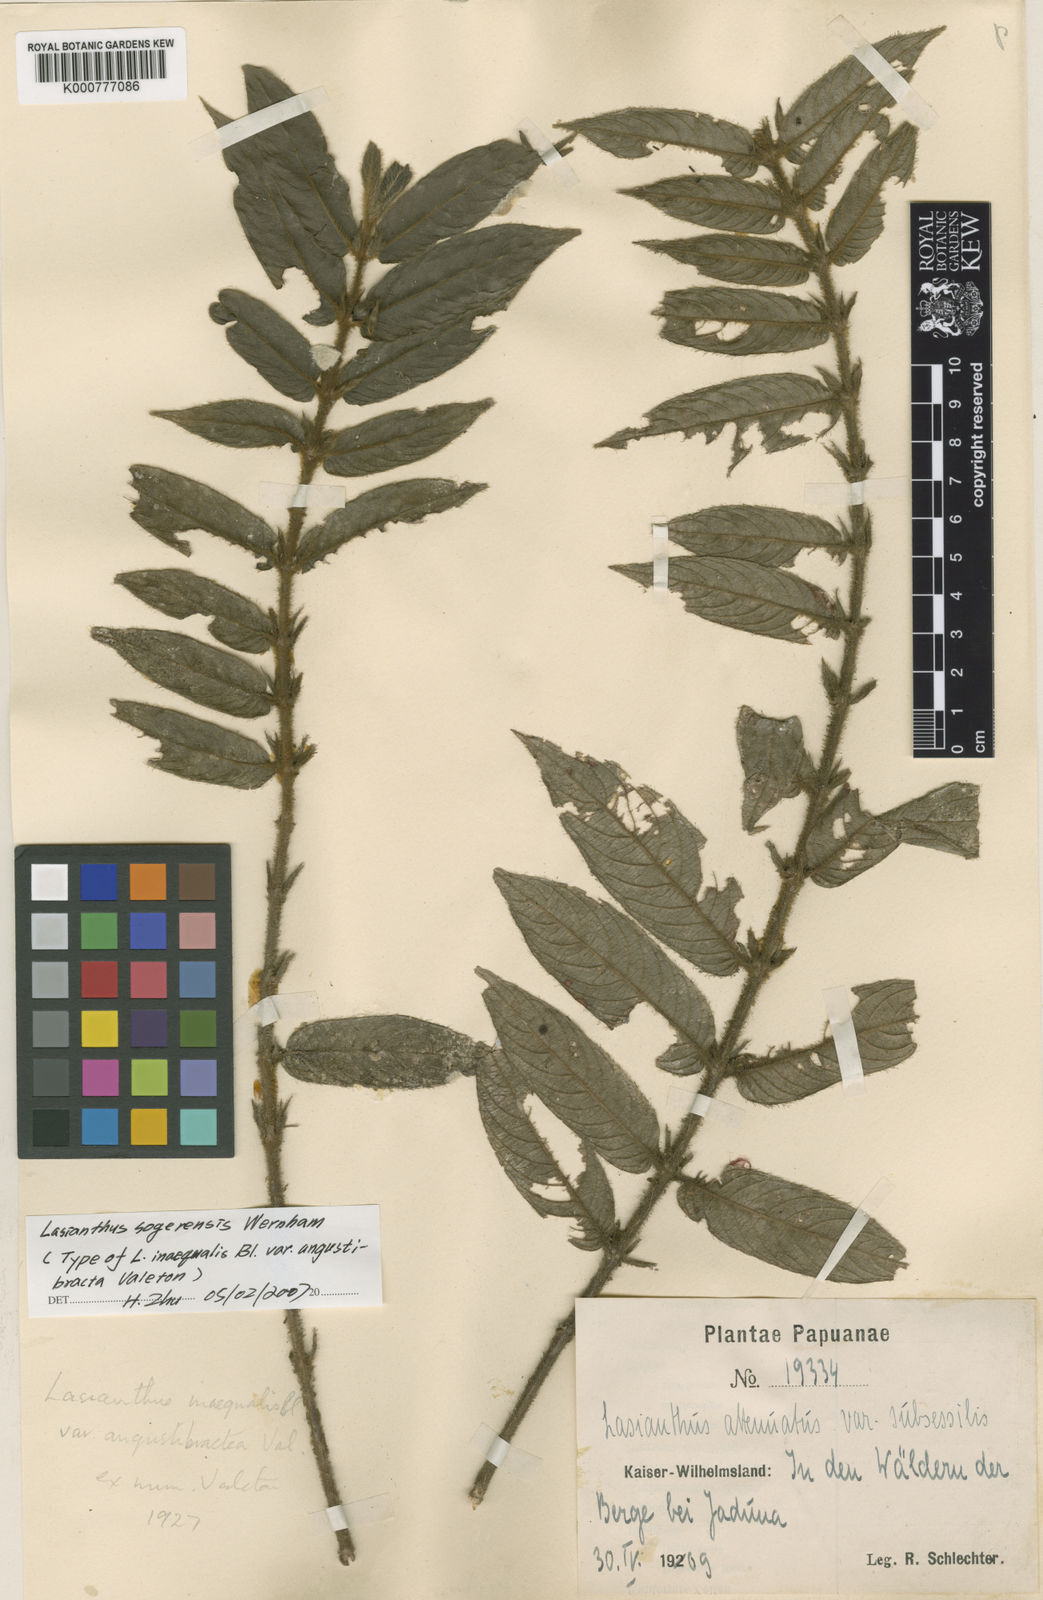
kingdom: Plantae
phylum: Tracheophyta
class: Magnoliopsida
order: Gentianales
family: Rubiaceae
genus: Lasianthus
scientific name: Lasianthus sogerensis
